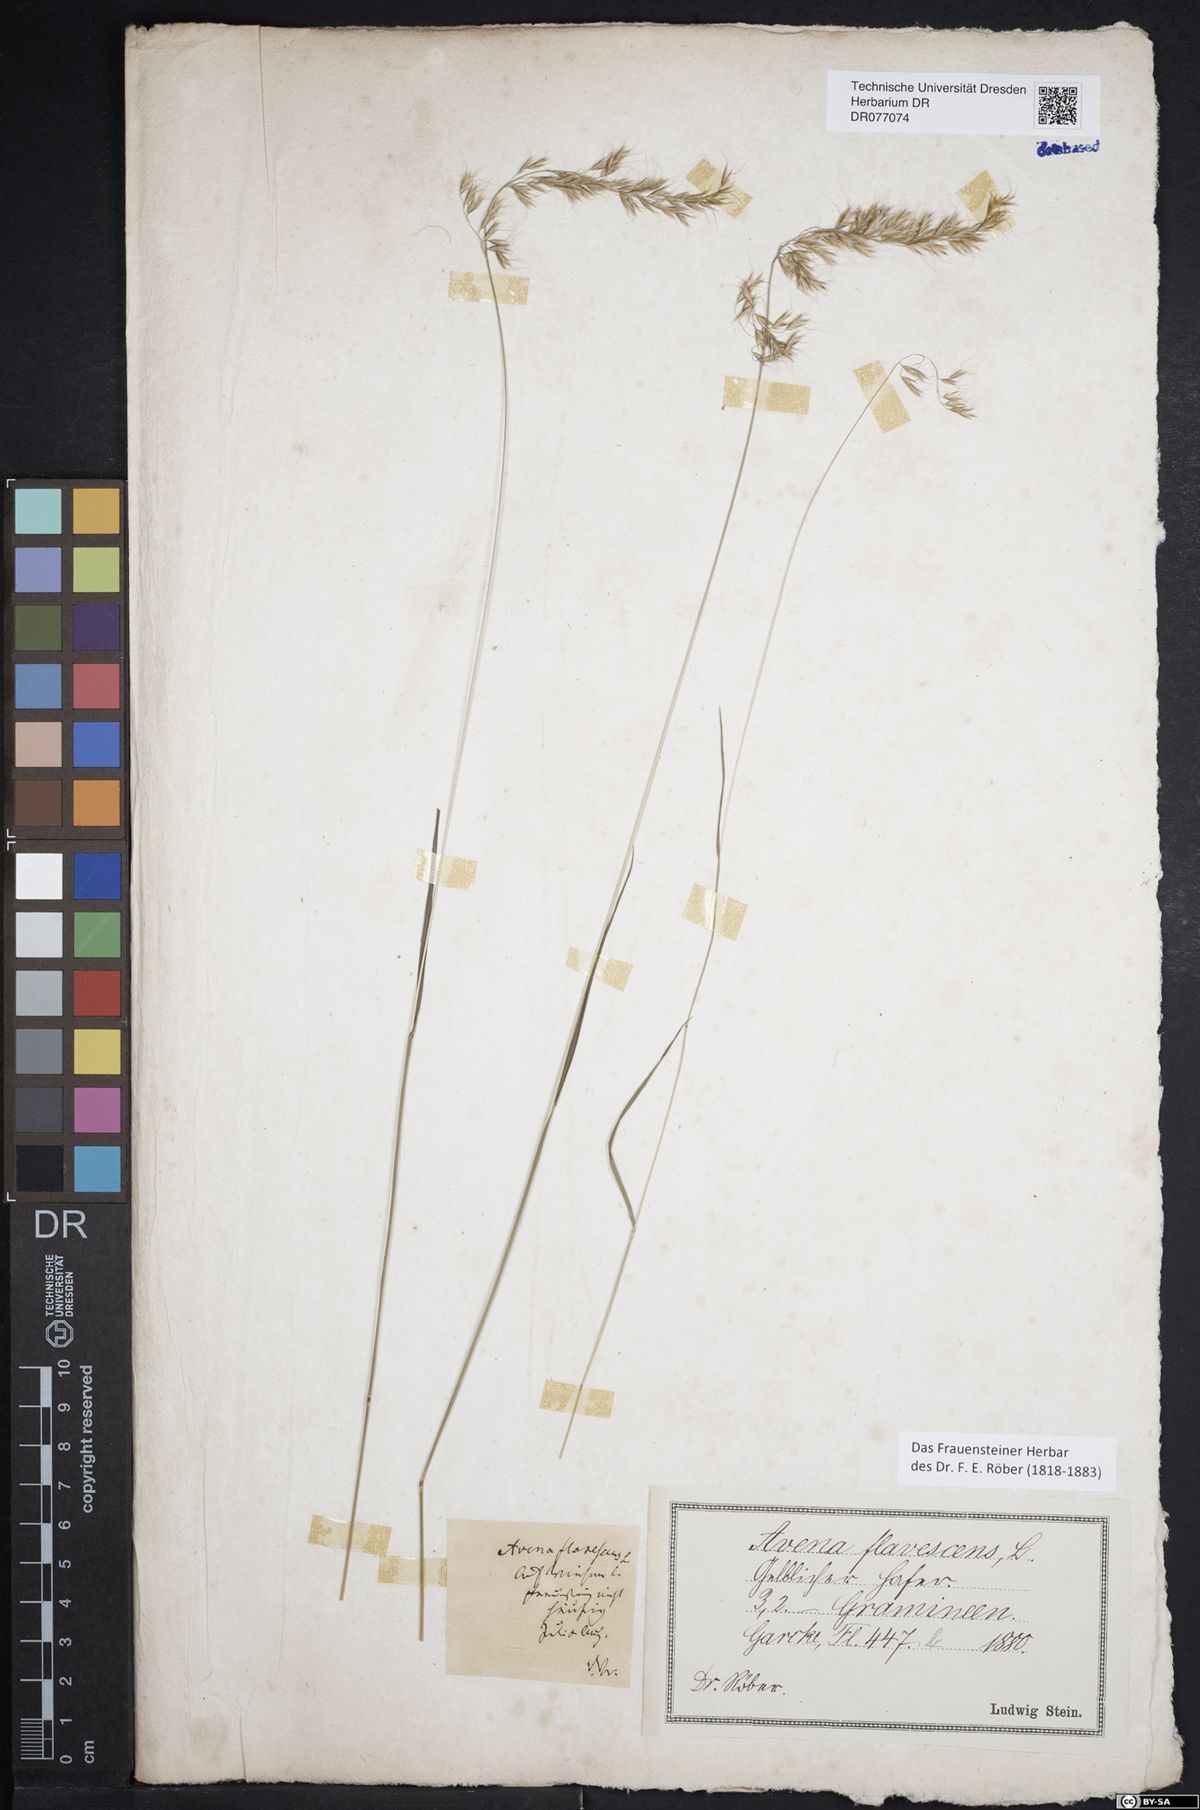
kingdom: Plantae
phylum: Tracheophyta
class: Liliopsida
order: Poales
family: Poaceae
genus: Trisetum
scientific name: Trisetum flavescens
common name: Yellow oat-grass
